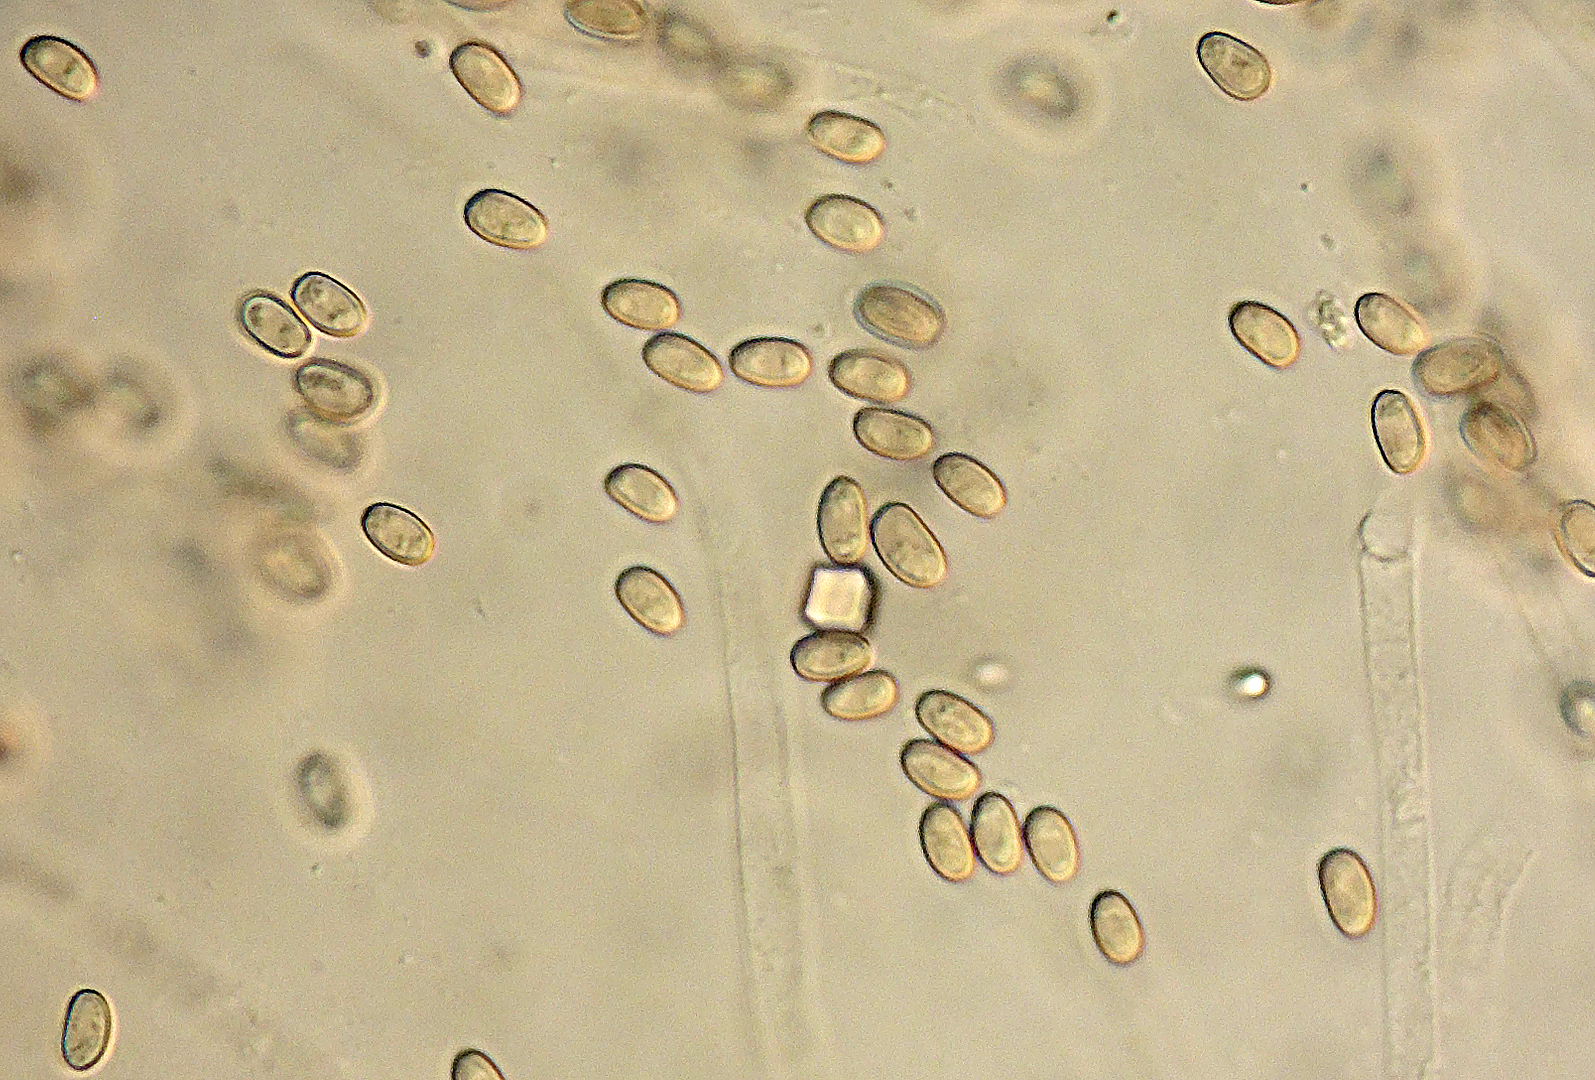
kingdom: Fungi
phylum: Basidiomycota
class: Agaricomycetes
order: Agaricales
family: Strophariaceae
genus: Pholiota
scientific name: Pholiota pityrodes
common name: tagrørs-skælhat
